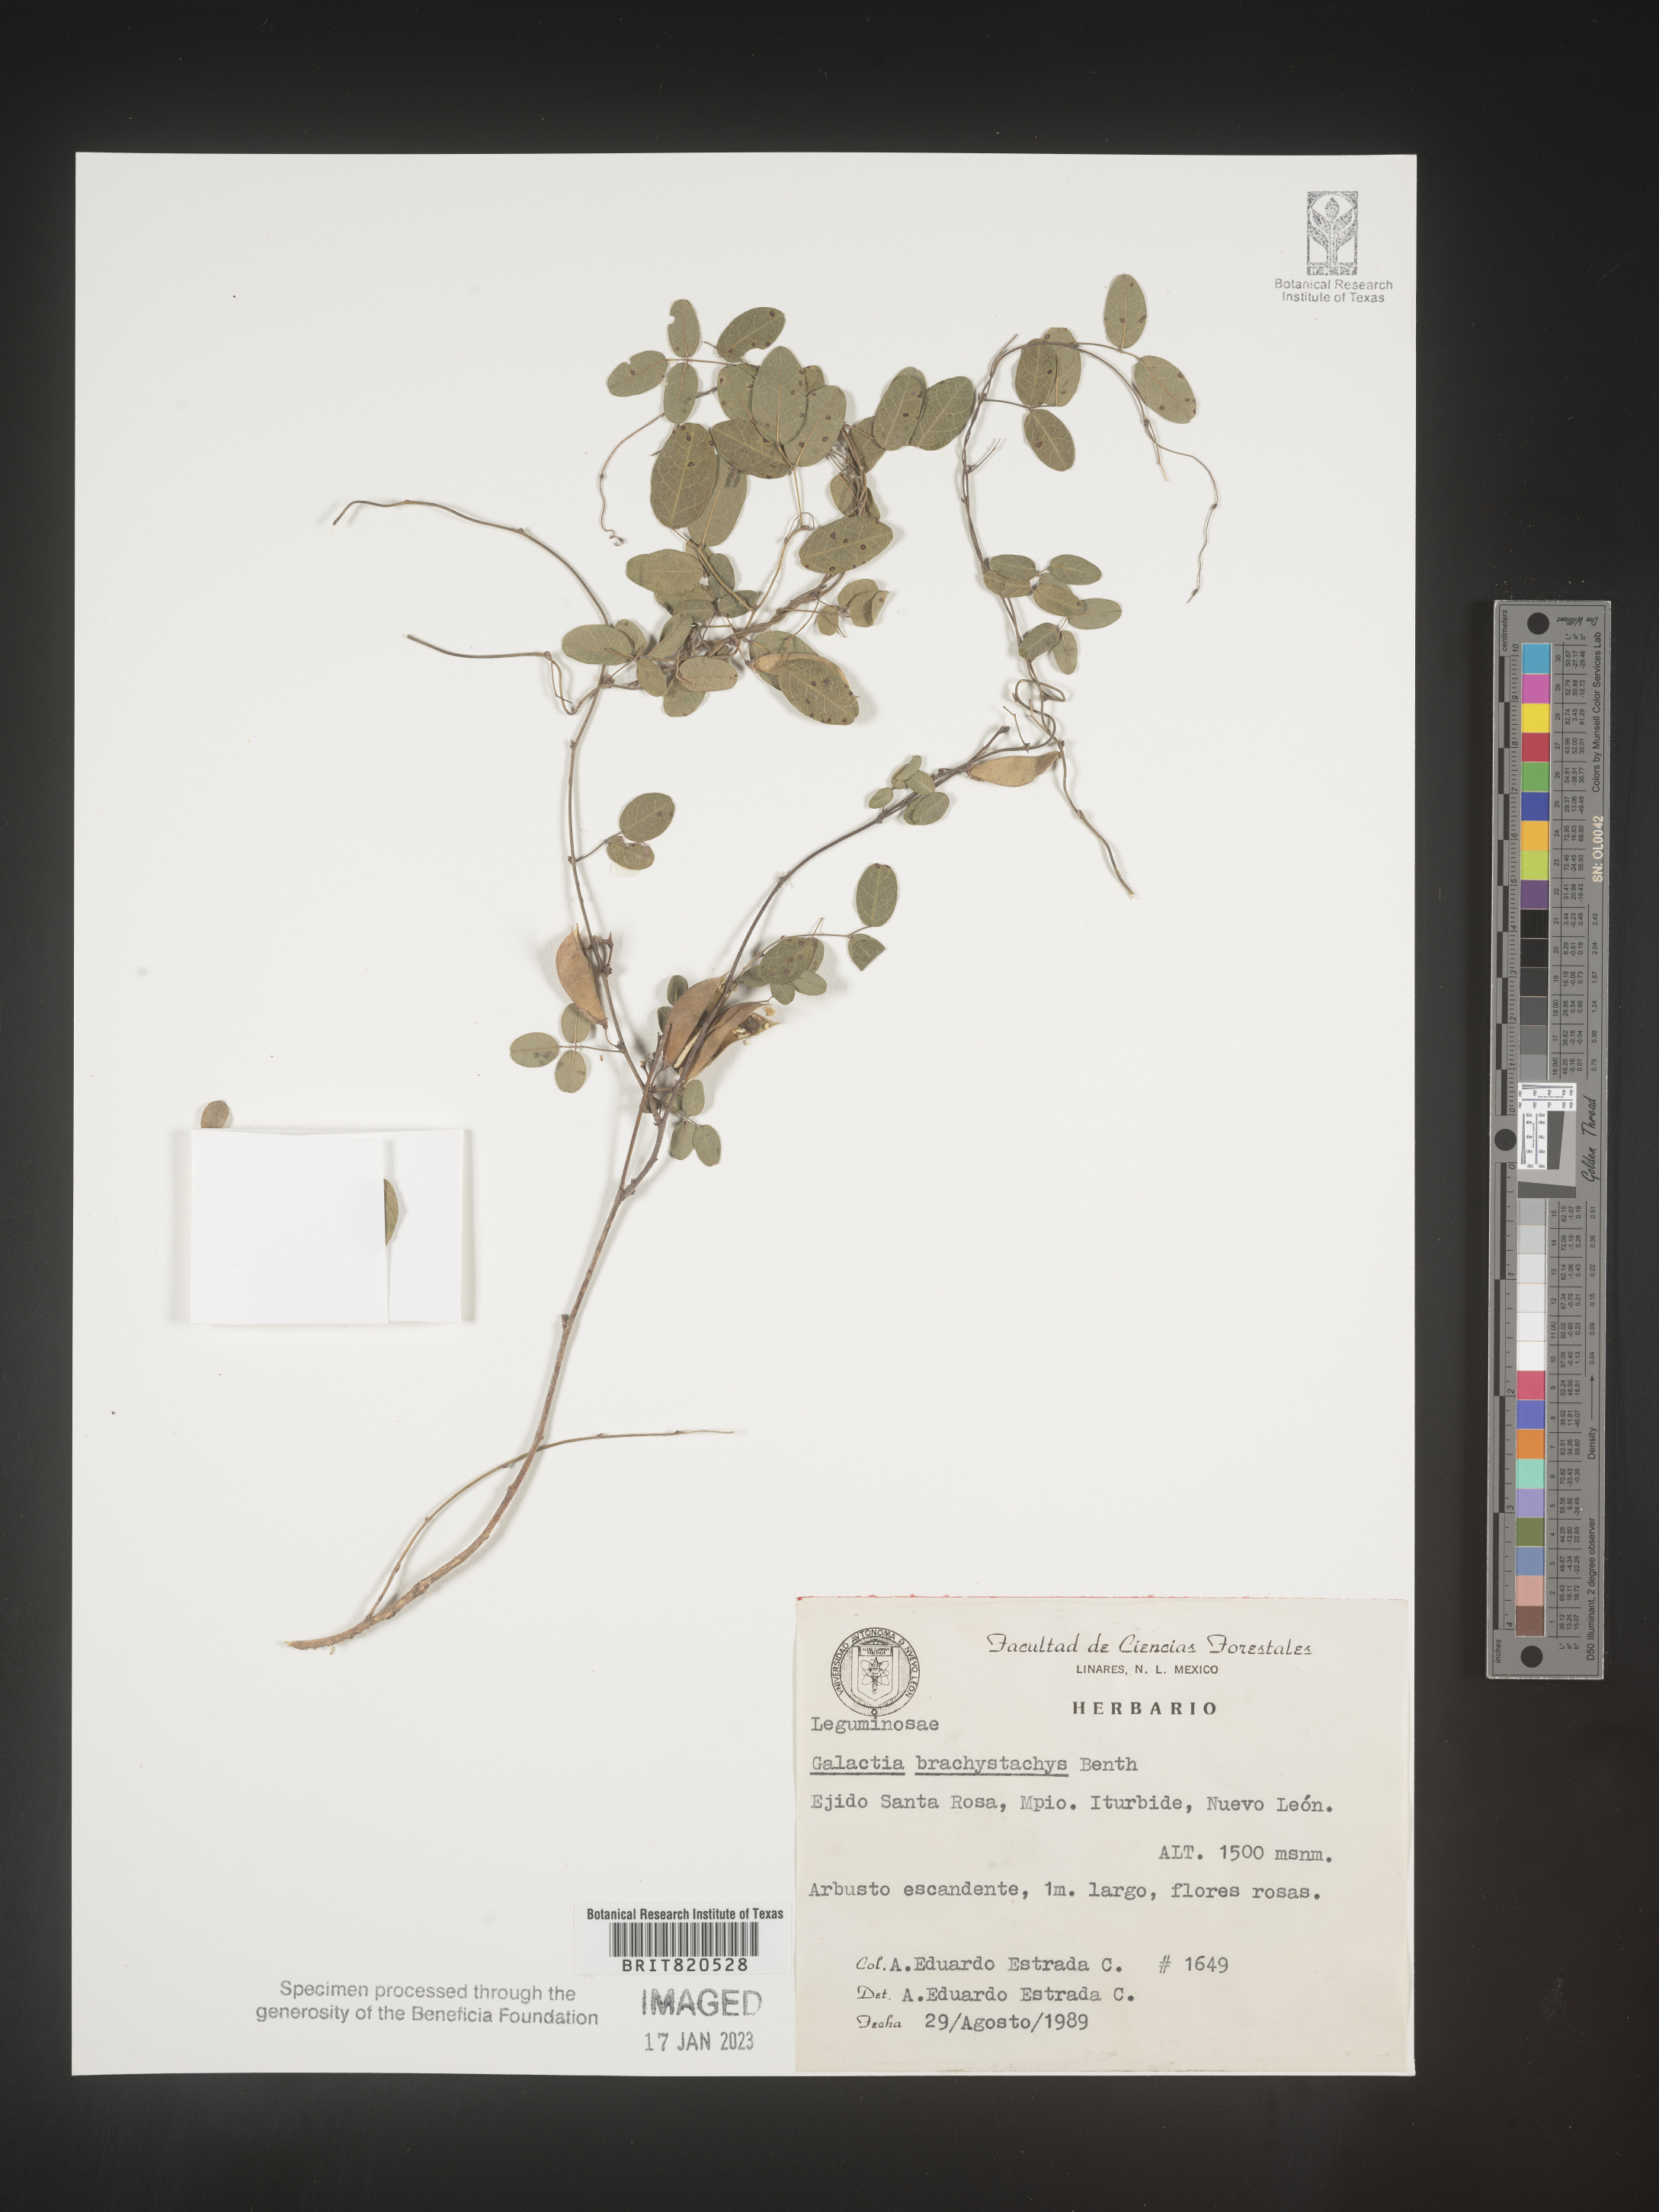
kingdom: Plantae
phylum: Tracheophyta
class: Magnoliopsida
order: Fabales
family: Fabaceae
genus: Nanogalactia
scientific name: Nanogalactia brachystachys
